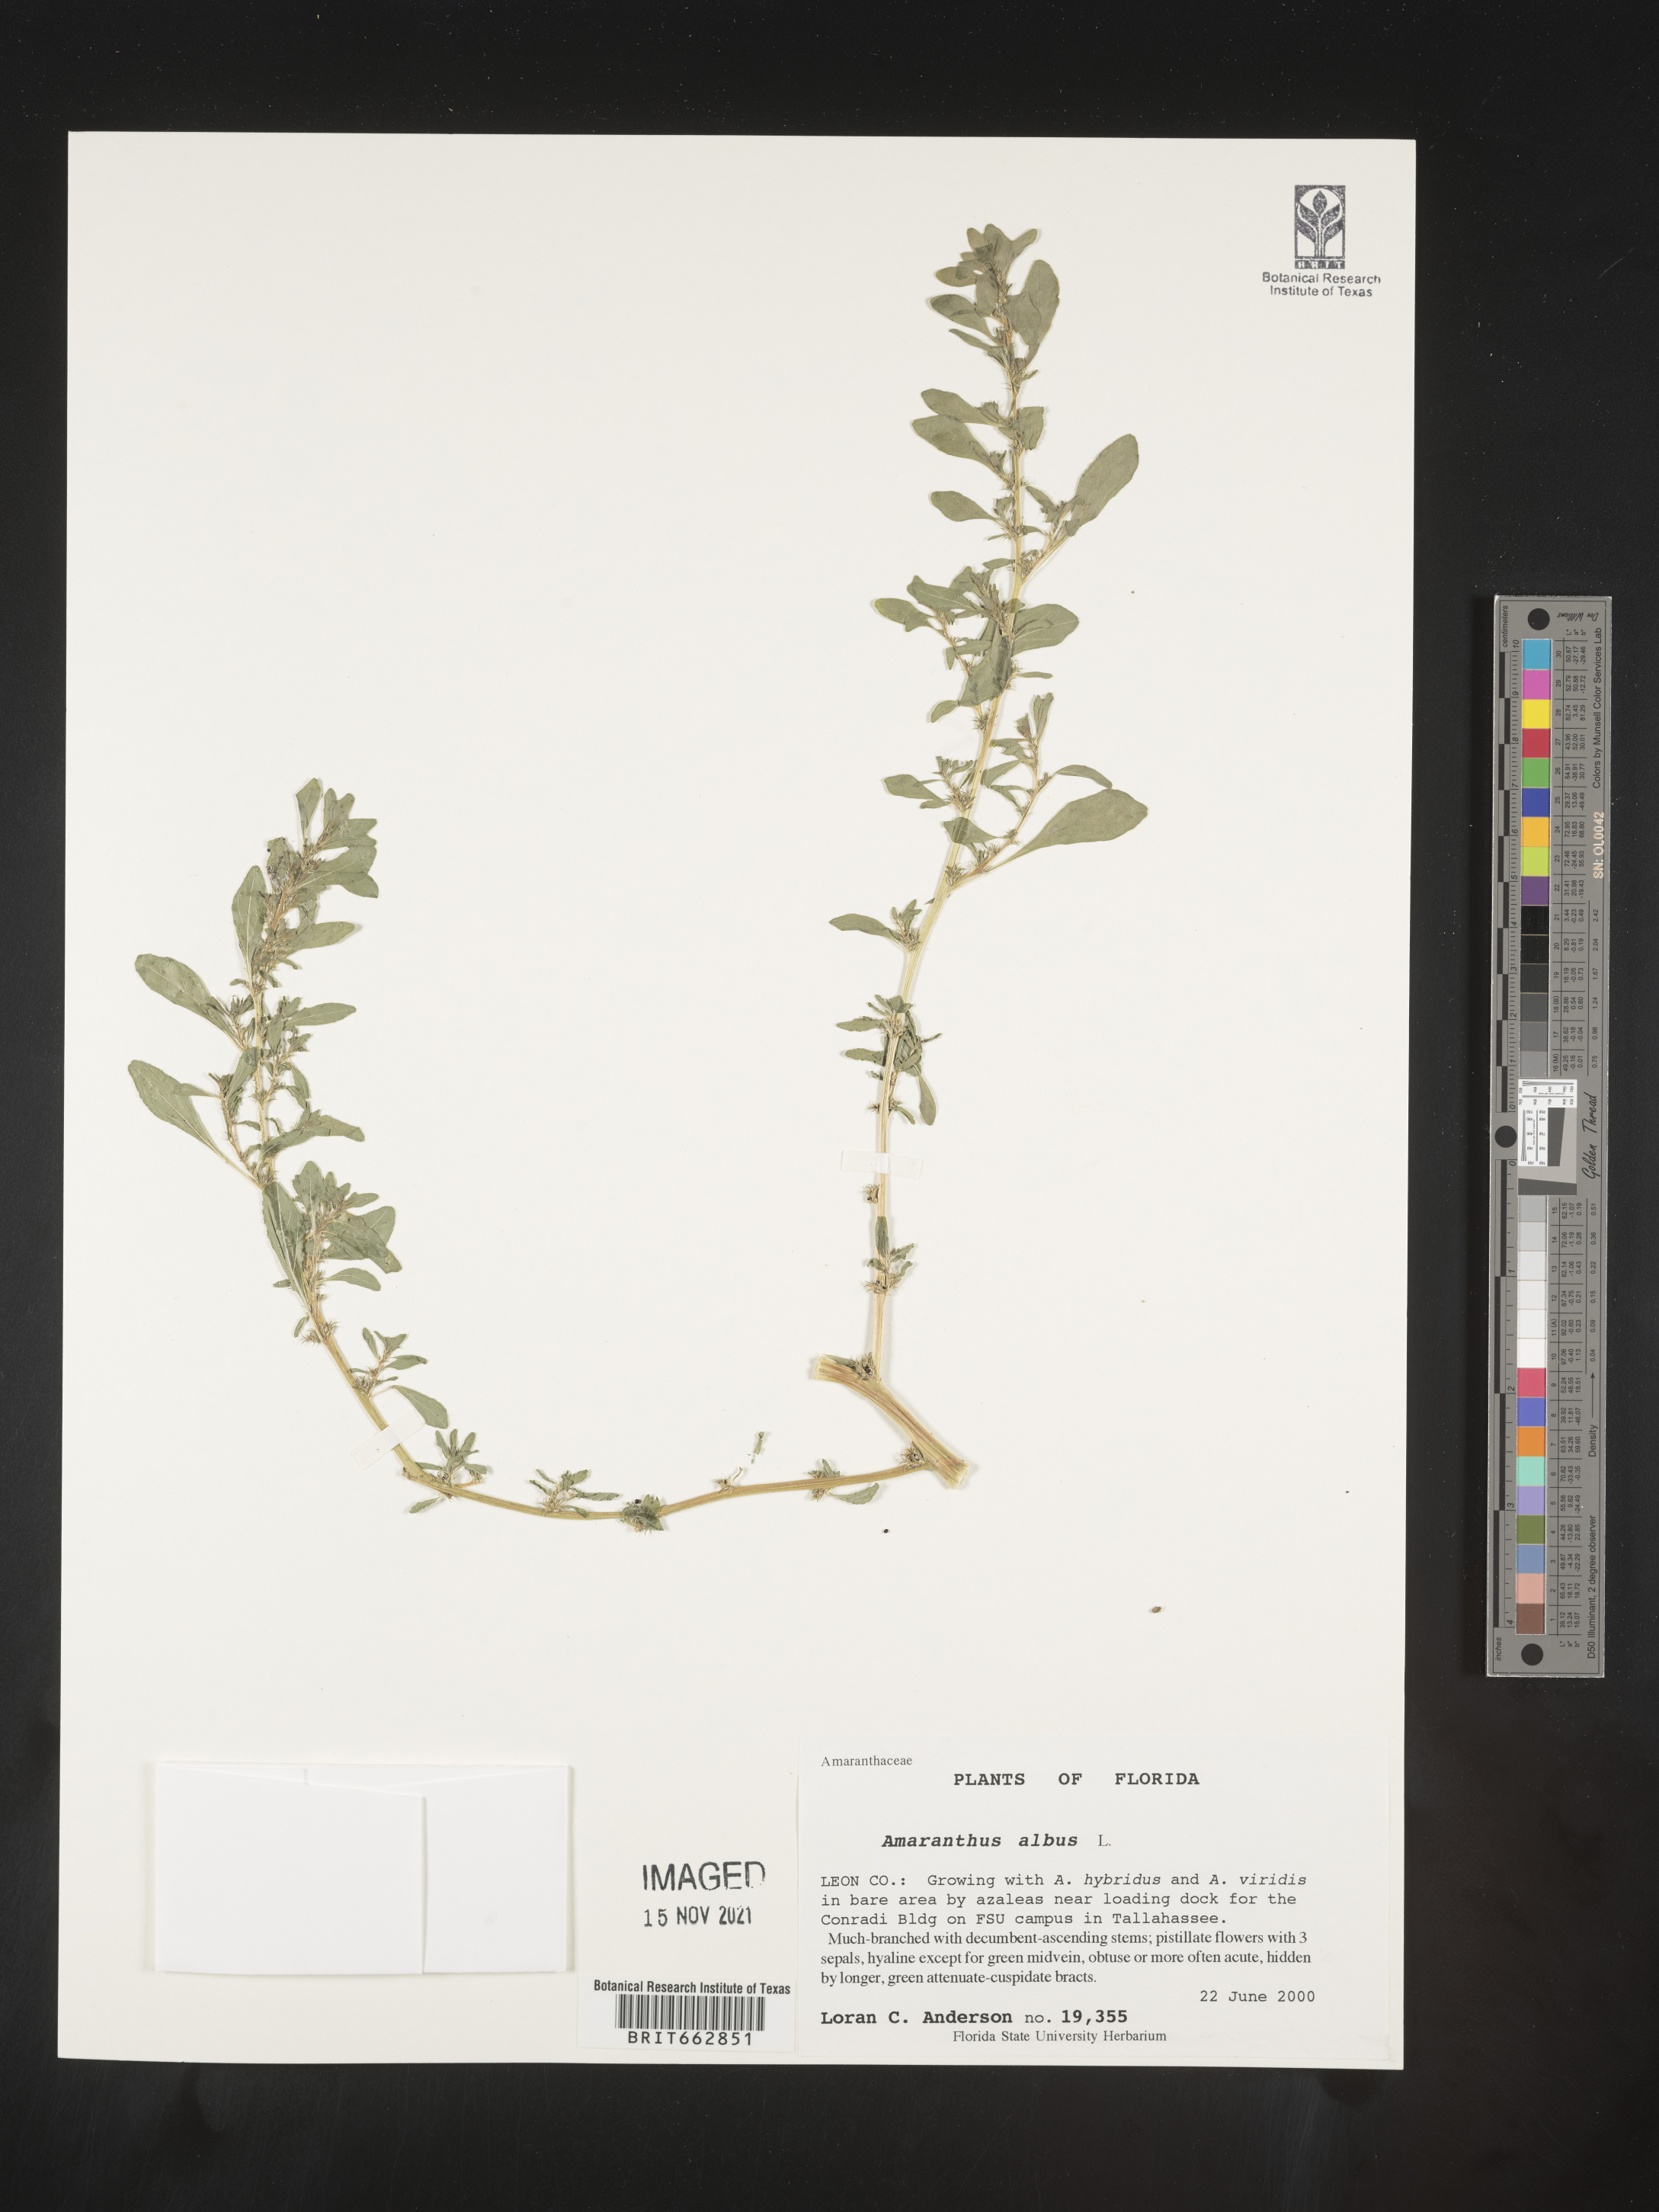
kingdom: Plantae
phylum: Tracheophyta
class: Magnoliopsida
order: Caryophyllales
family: Amaranthaceae
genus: Amaranthus
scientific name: Amaranthus albus
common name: White pigweed
